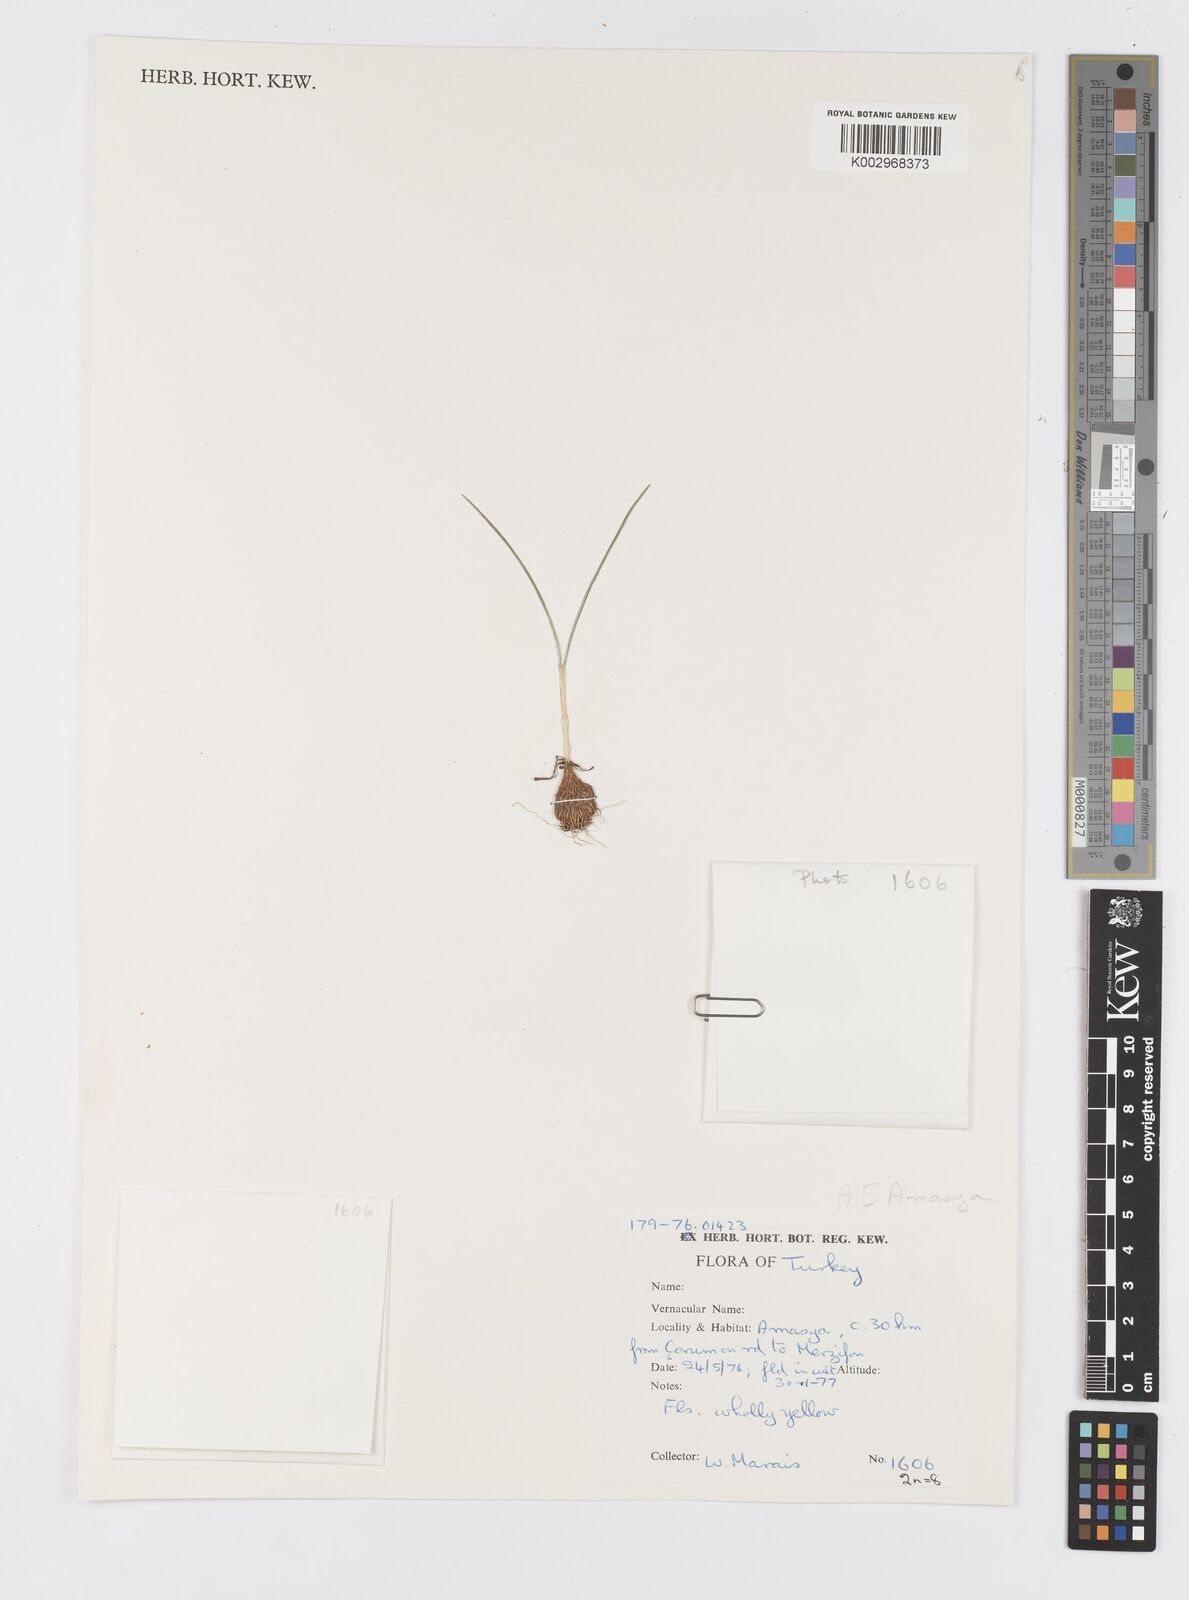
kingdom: Plantae
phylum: Tracheophyta
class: Liliopsida
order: Asparagales
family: Iridaceae
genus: Crocus
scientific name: Crocus ancyrensis
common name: Ankara crocus
